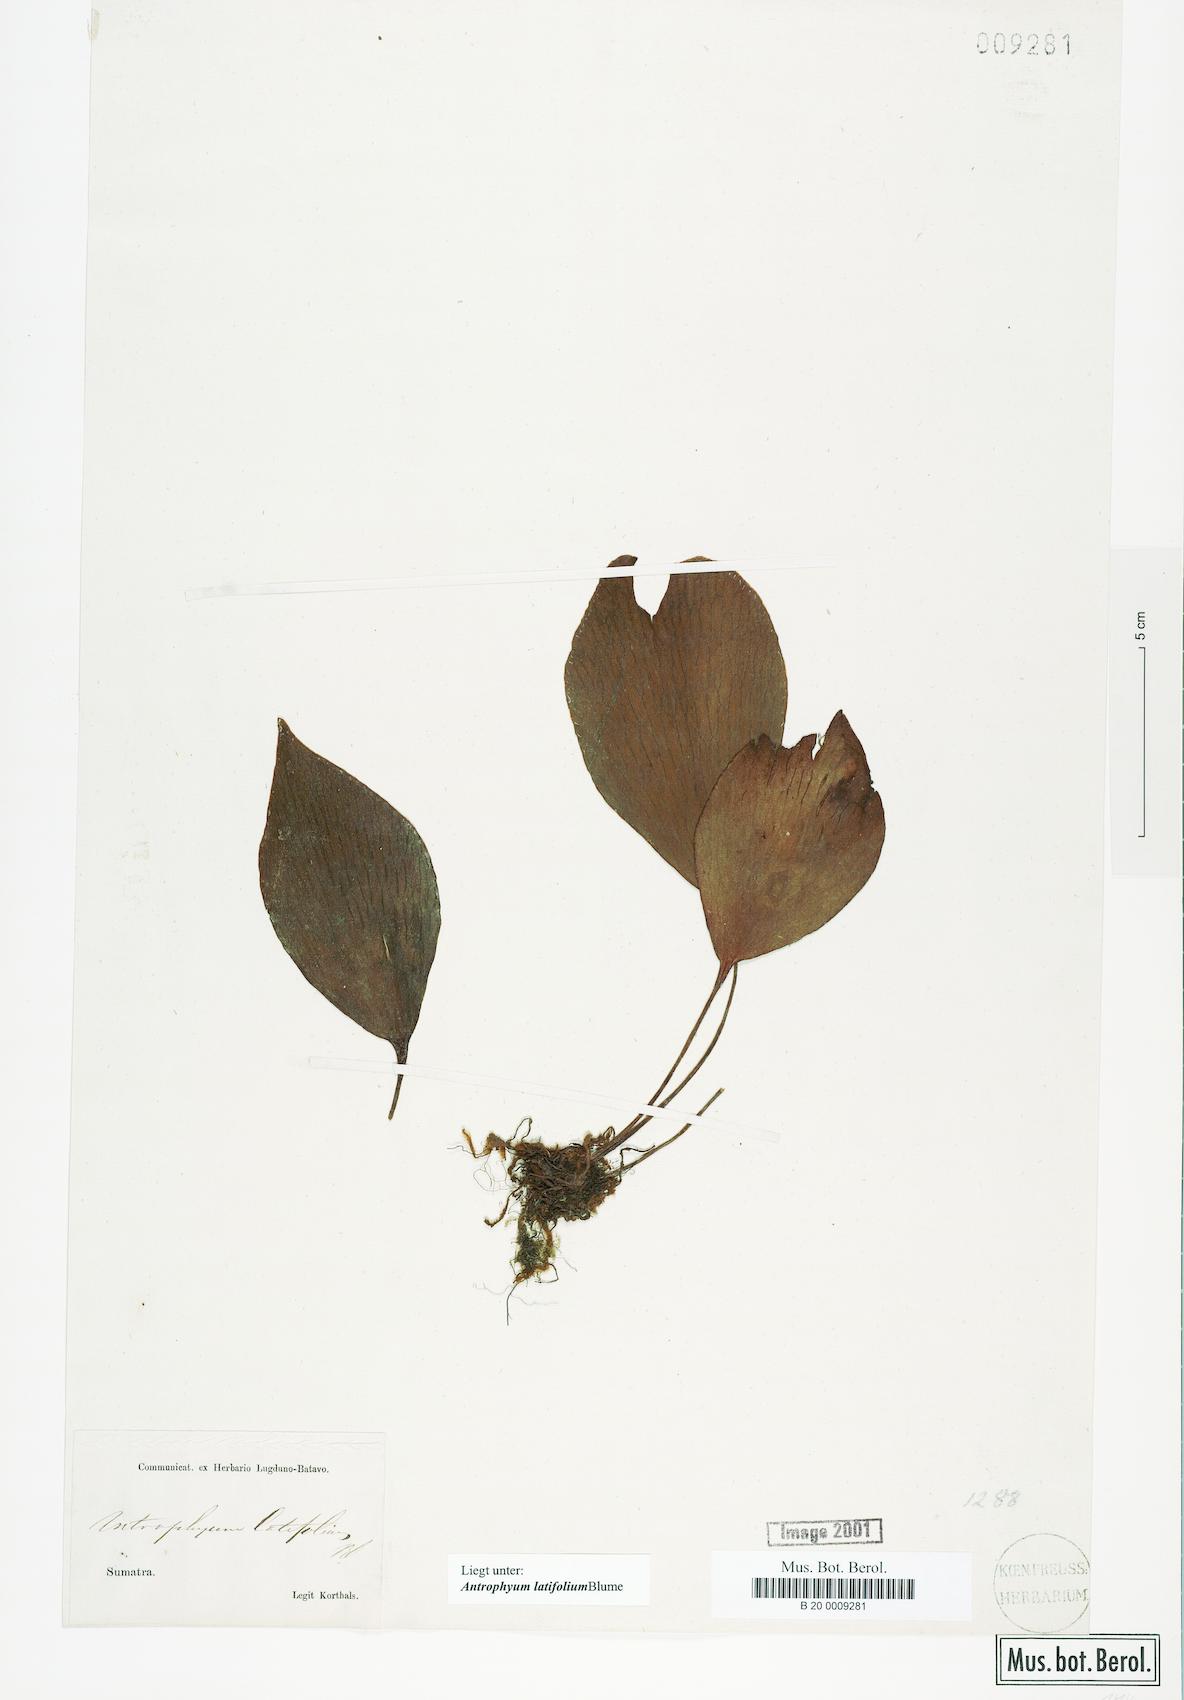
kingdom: Plantae
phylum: Tracheophyta
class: Polypodiopsida
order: Polypodiales
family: Pteridaceae
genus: Antrophyum
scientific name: Antrophyum latifolium
